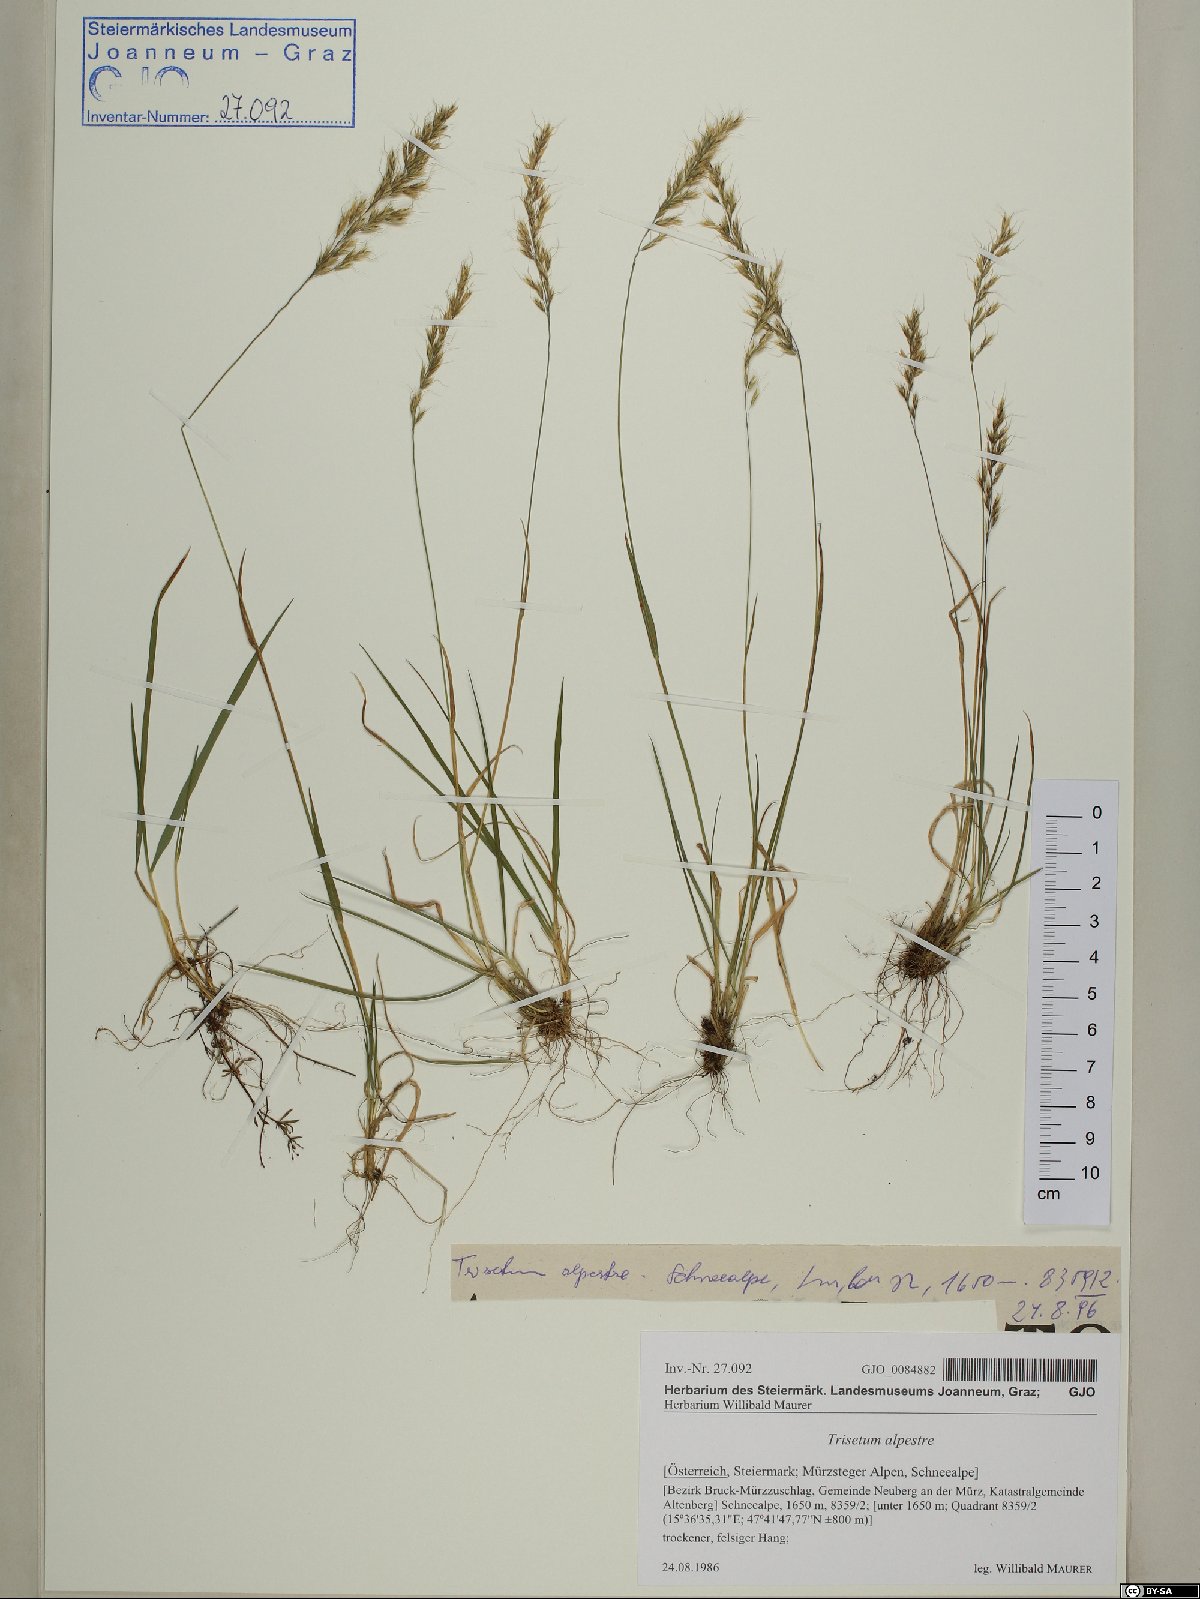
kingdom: Plantae
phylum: Tracheophyta
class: Liliopsida
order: Poales
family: Poaceae
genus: Trisetum
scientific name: Trisetum alpestre
